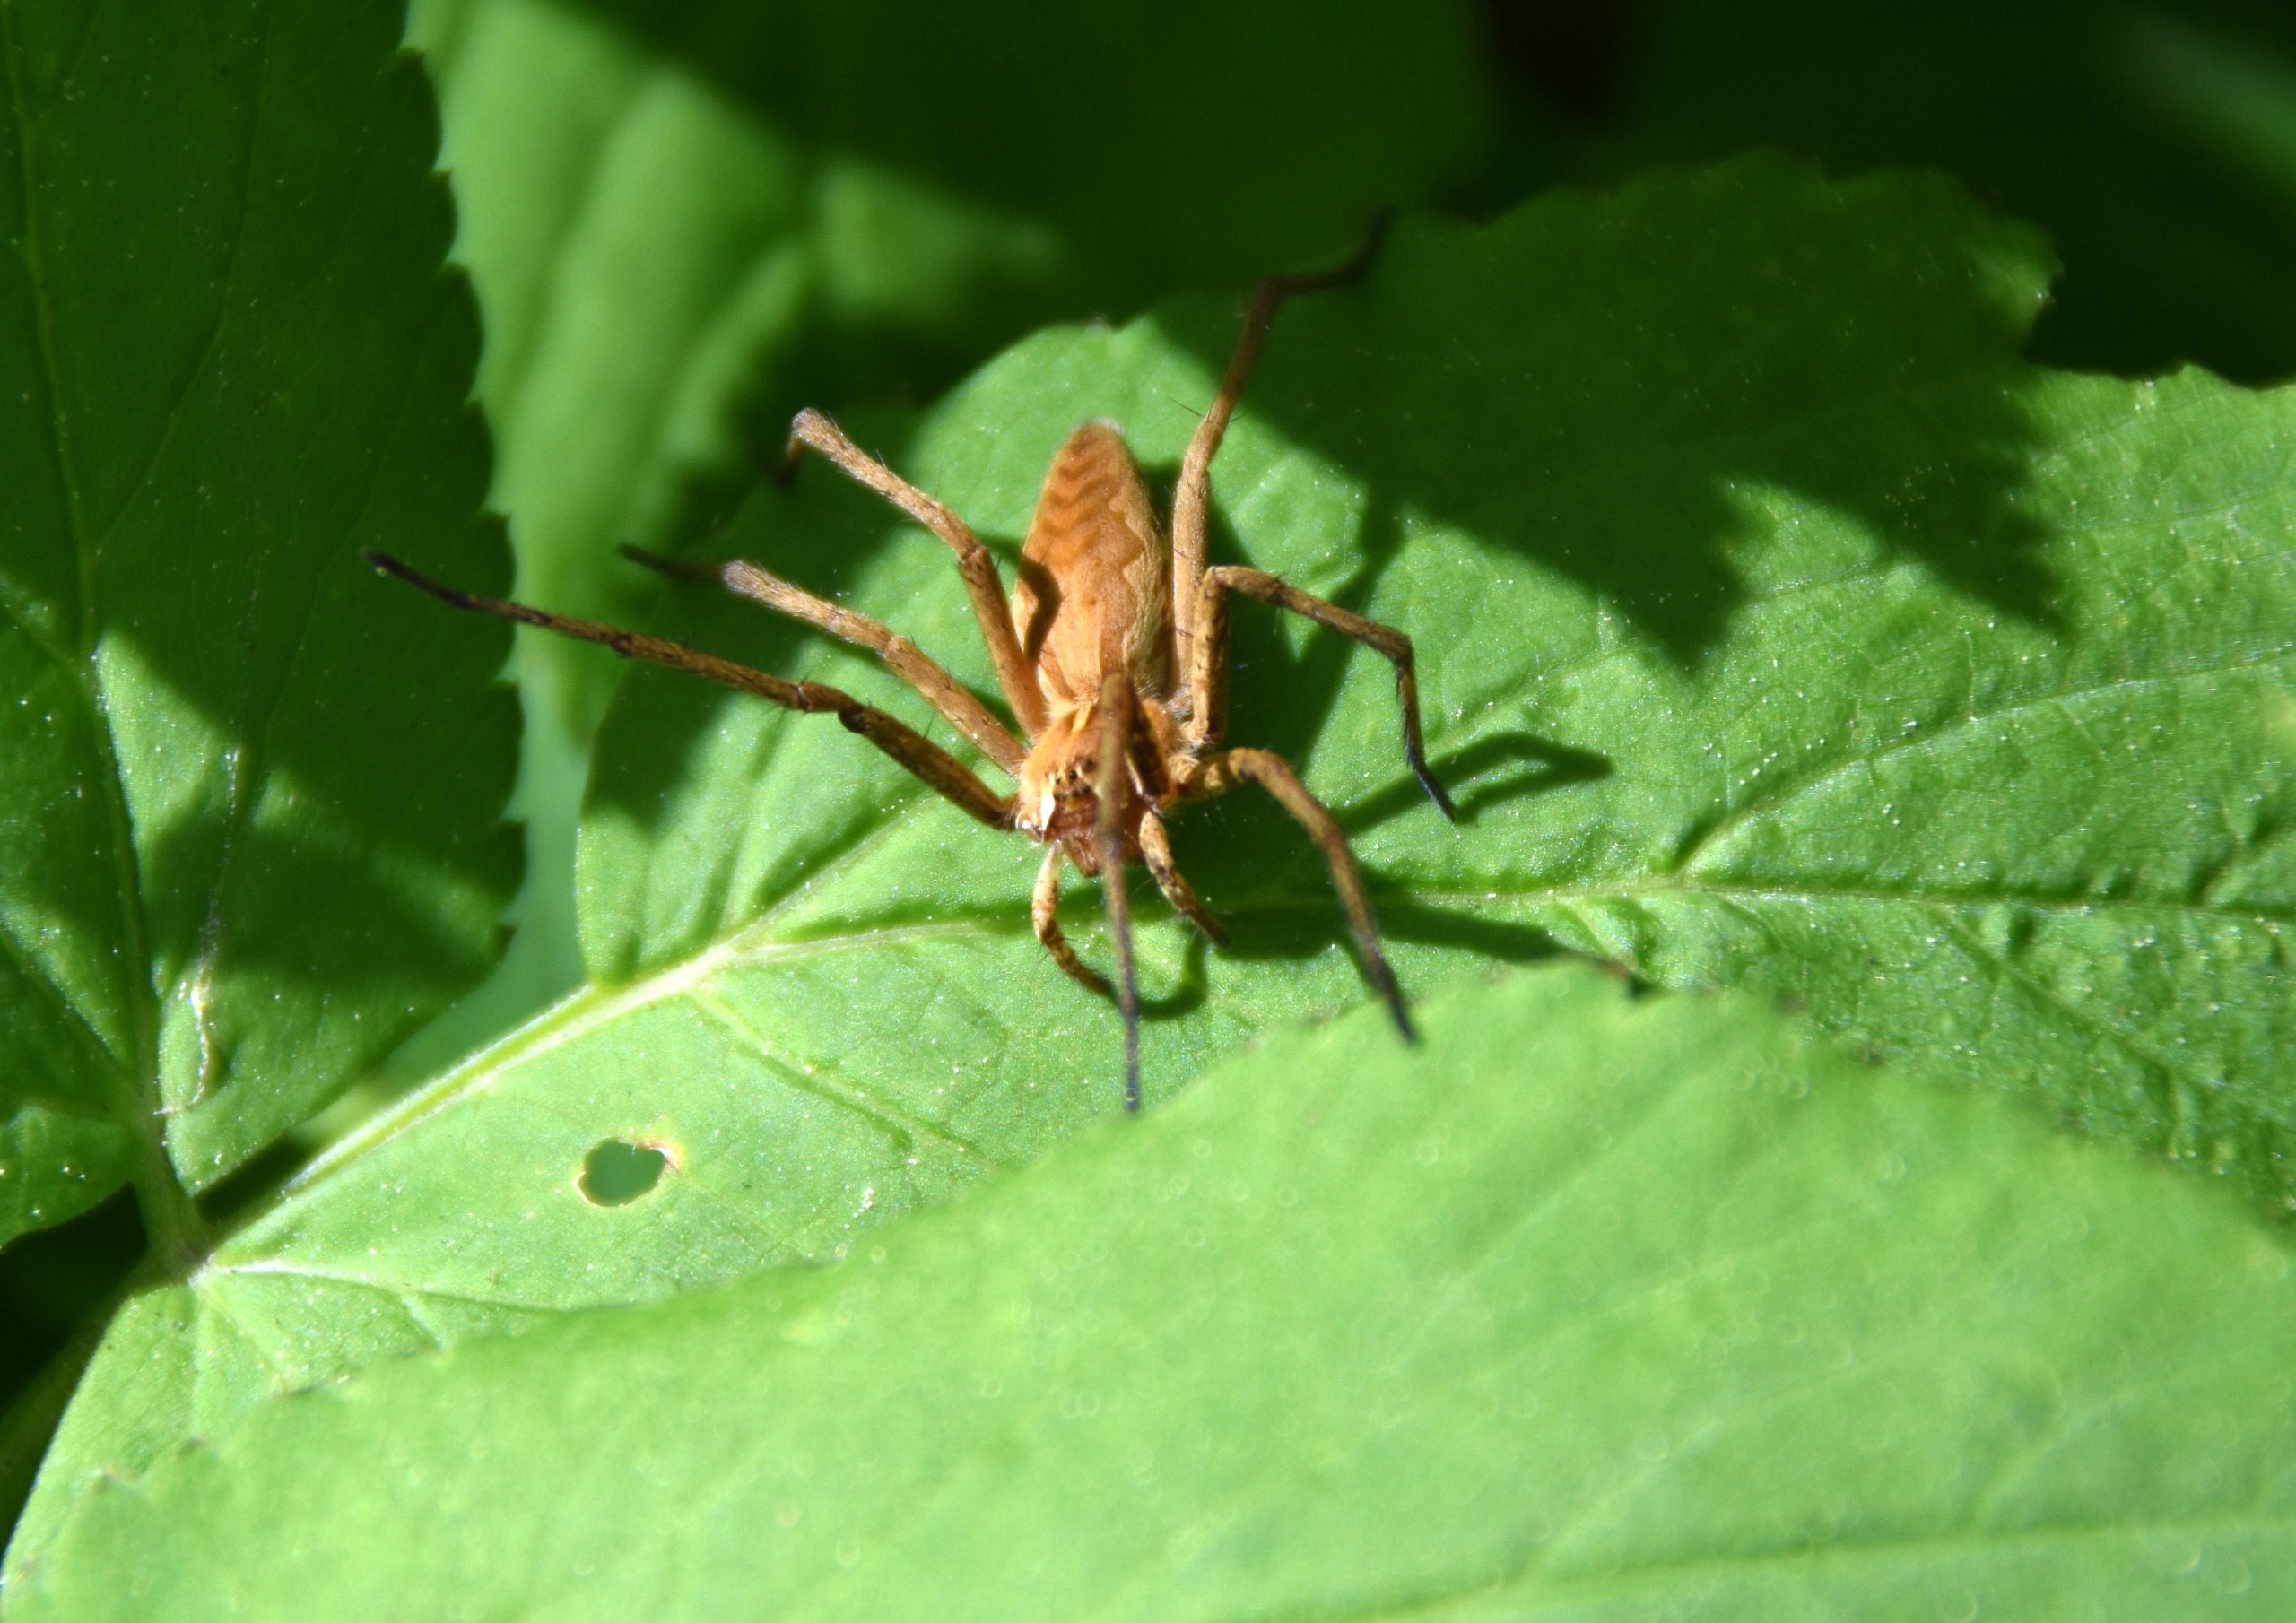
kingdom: Animalia
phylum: Arthropoda
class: Arachnida
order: Araneae
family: Pisauridae
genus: Pisaura
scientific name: Pisaura mirabilis
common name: Almindelig rovedderkop
